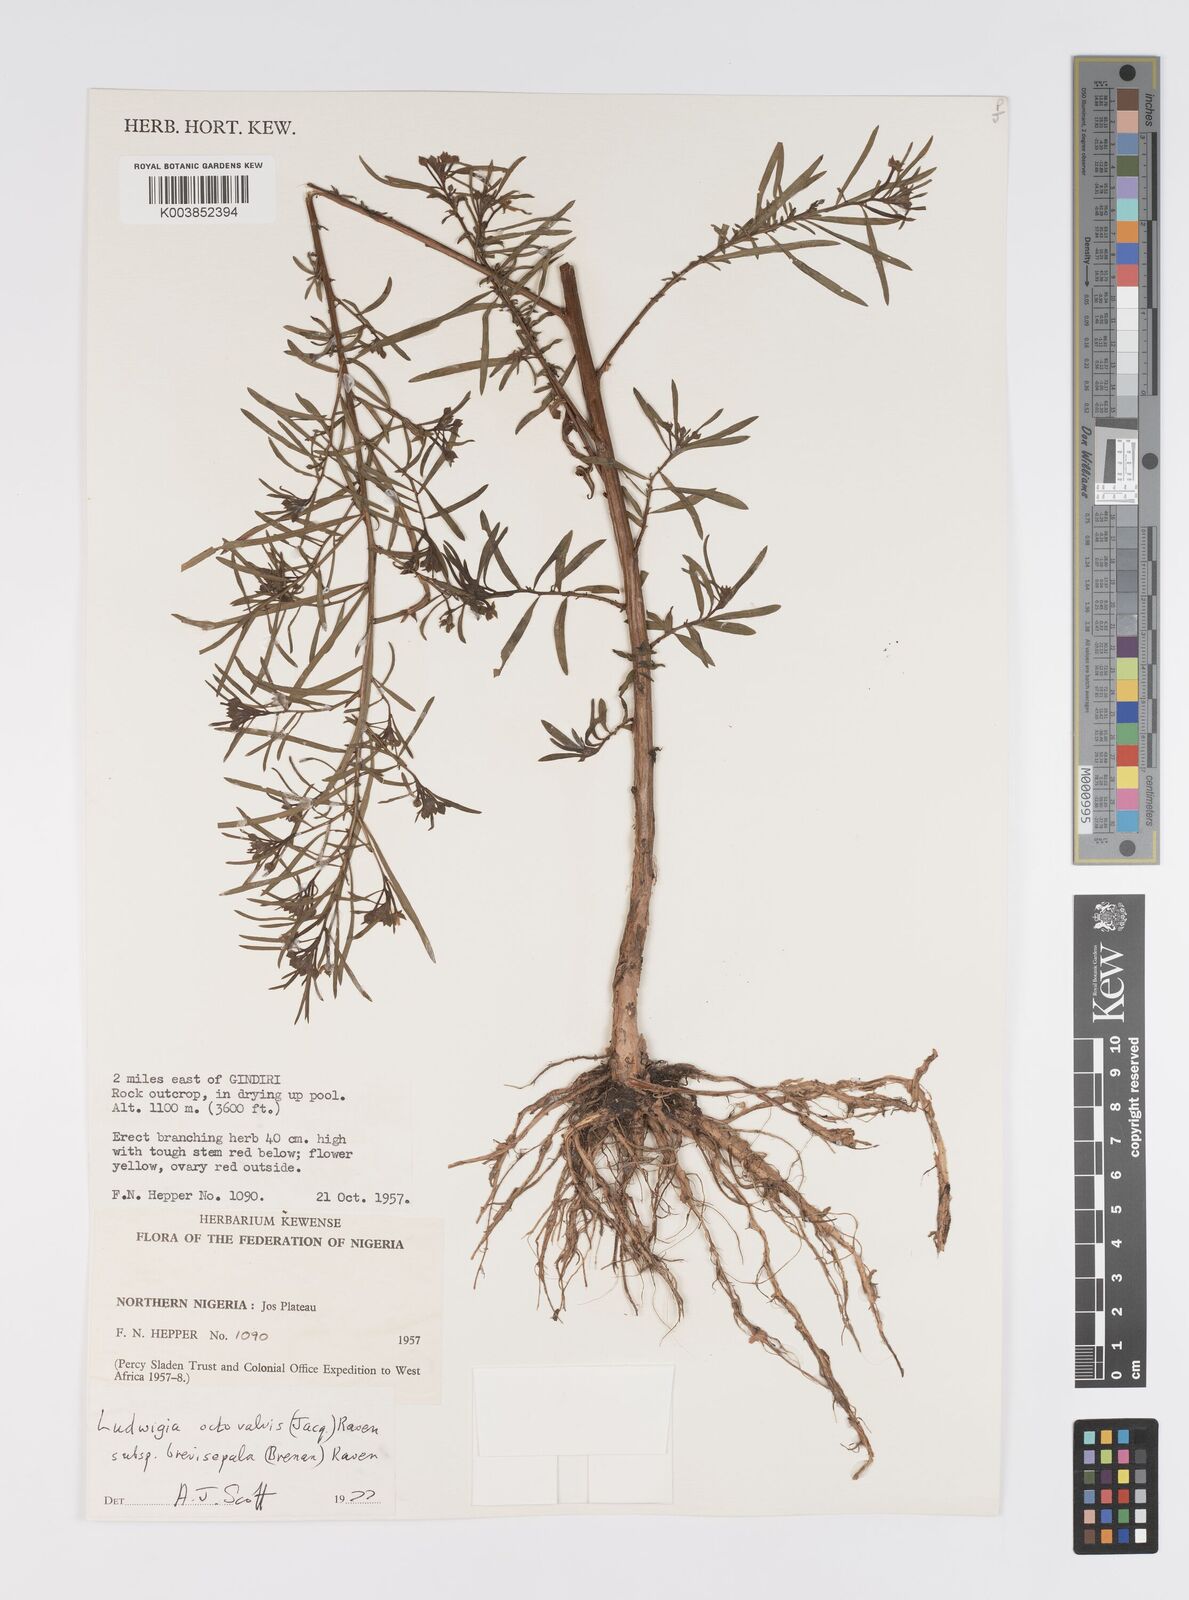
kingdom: Plantae
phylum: Tracheophyta
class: Magnoliopsida
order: Myrtales
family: Onagraceae
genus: Ludwigia
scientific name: Ludwigia octovalvis
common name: Water-primrose
